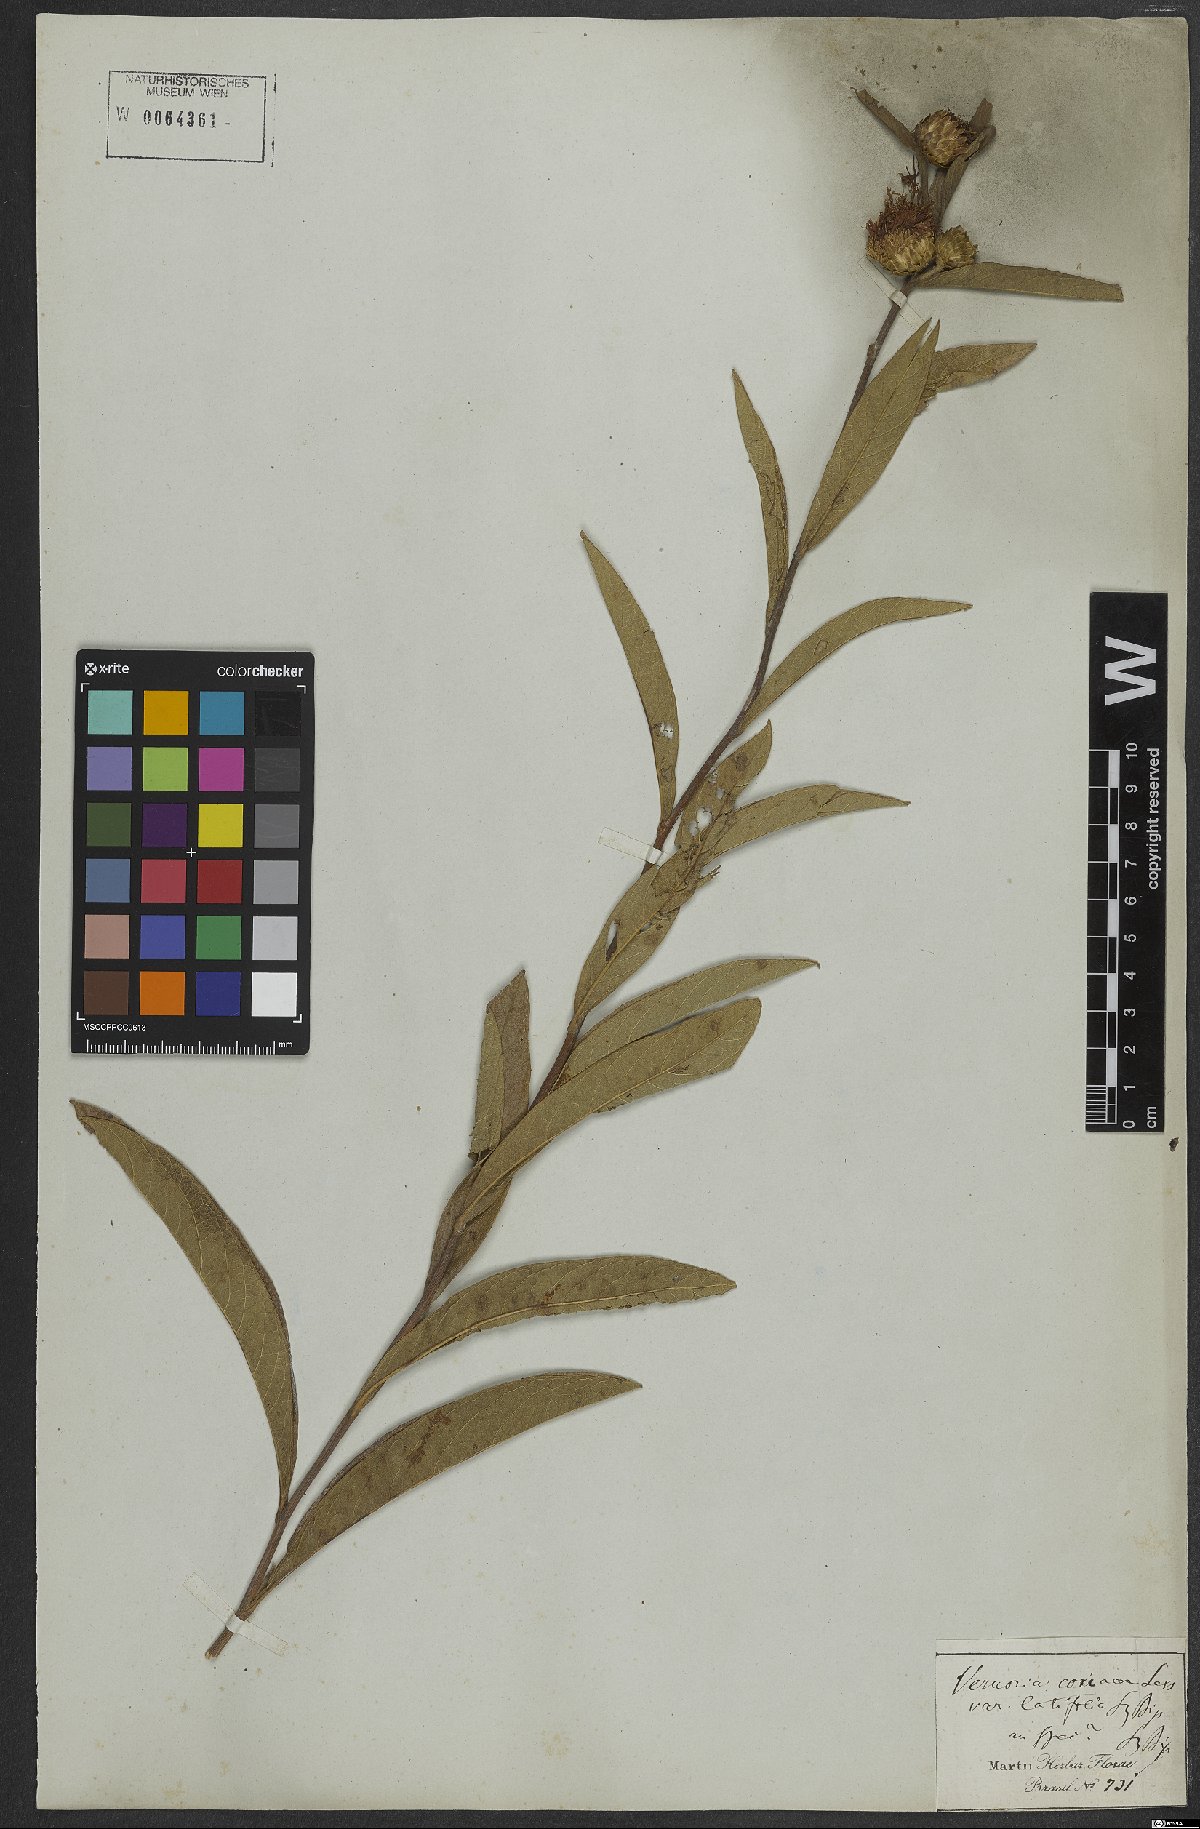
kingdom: Plantae
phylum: Tracheophyta
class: Magnoliopsida
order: Asterales
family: Asteraceae
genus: Lessingianthus
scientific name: Lessingianthus coriaceus
